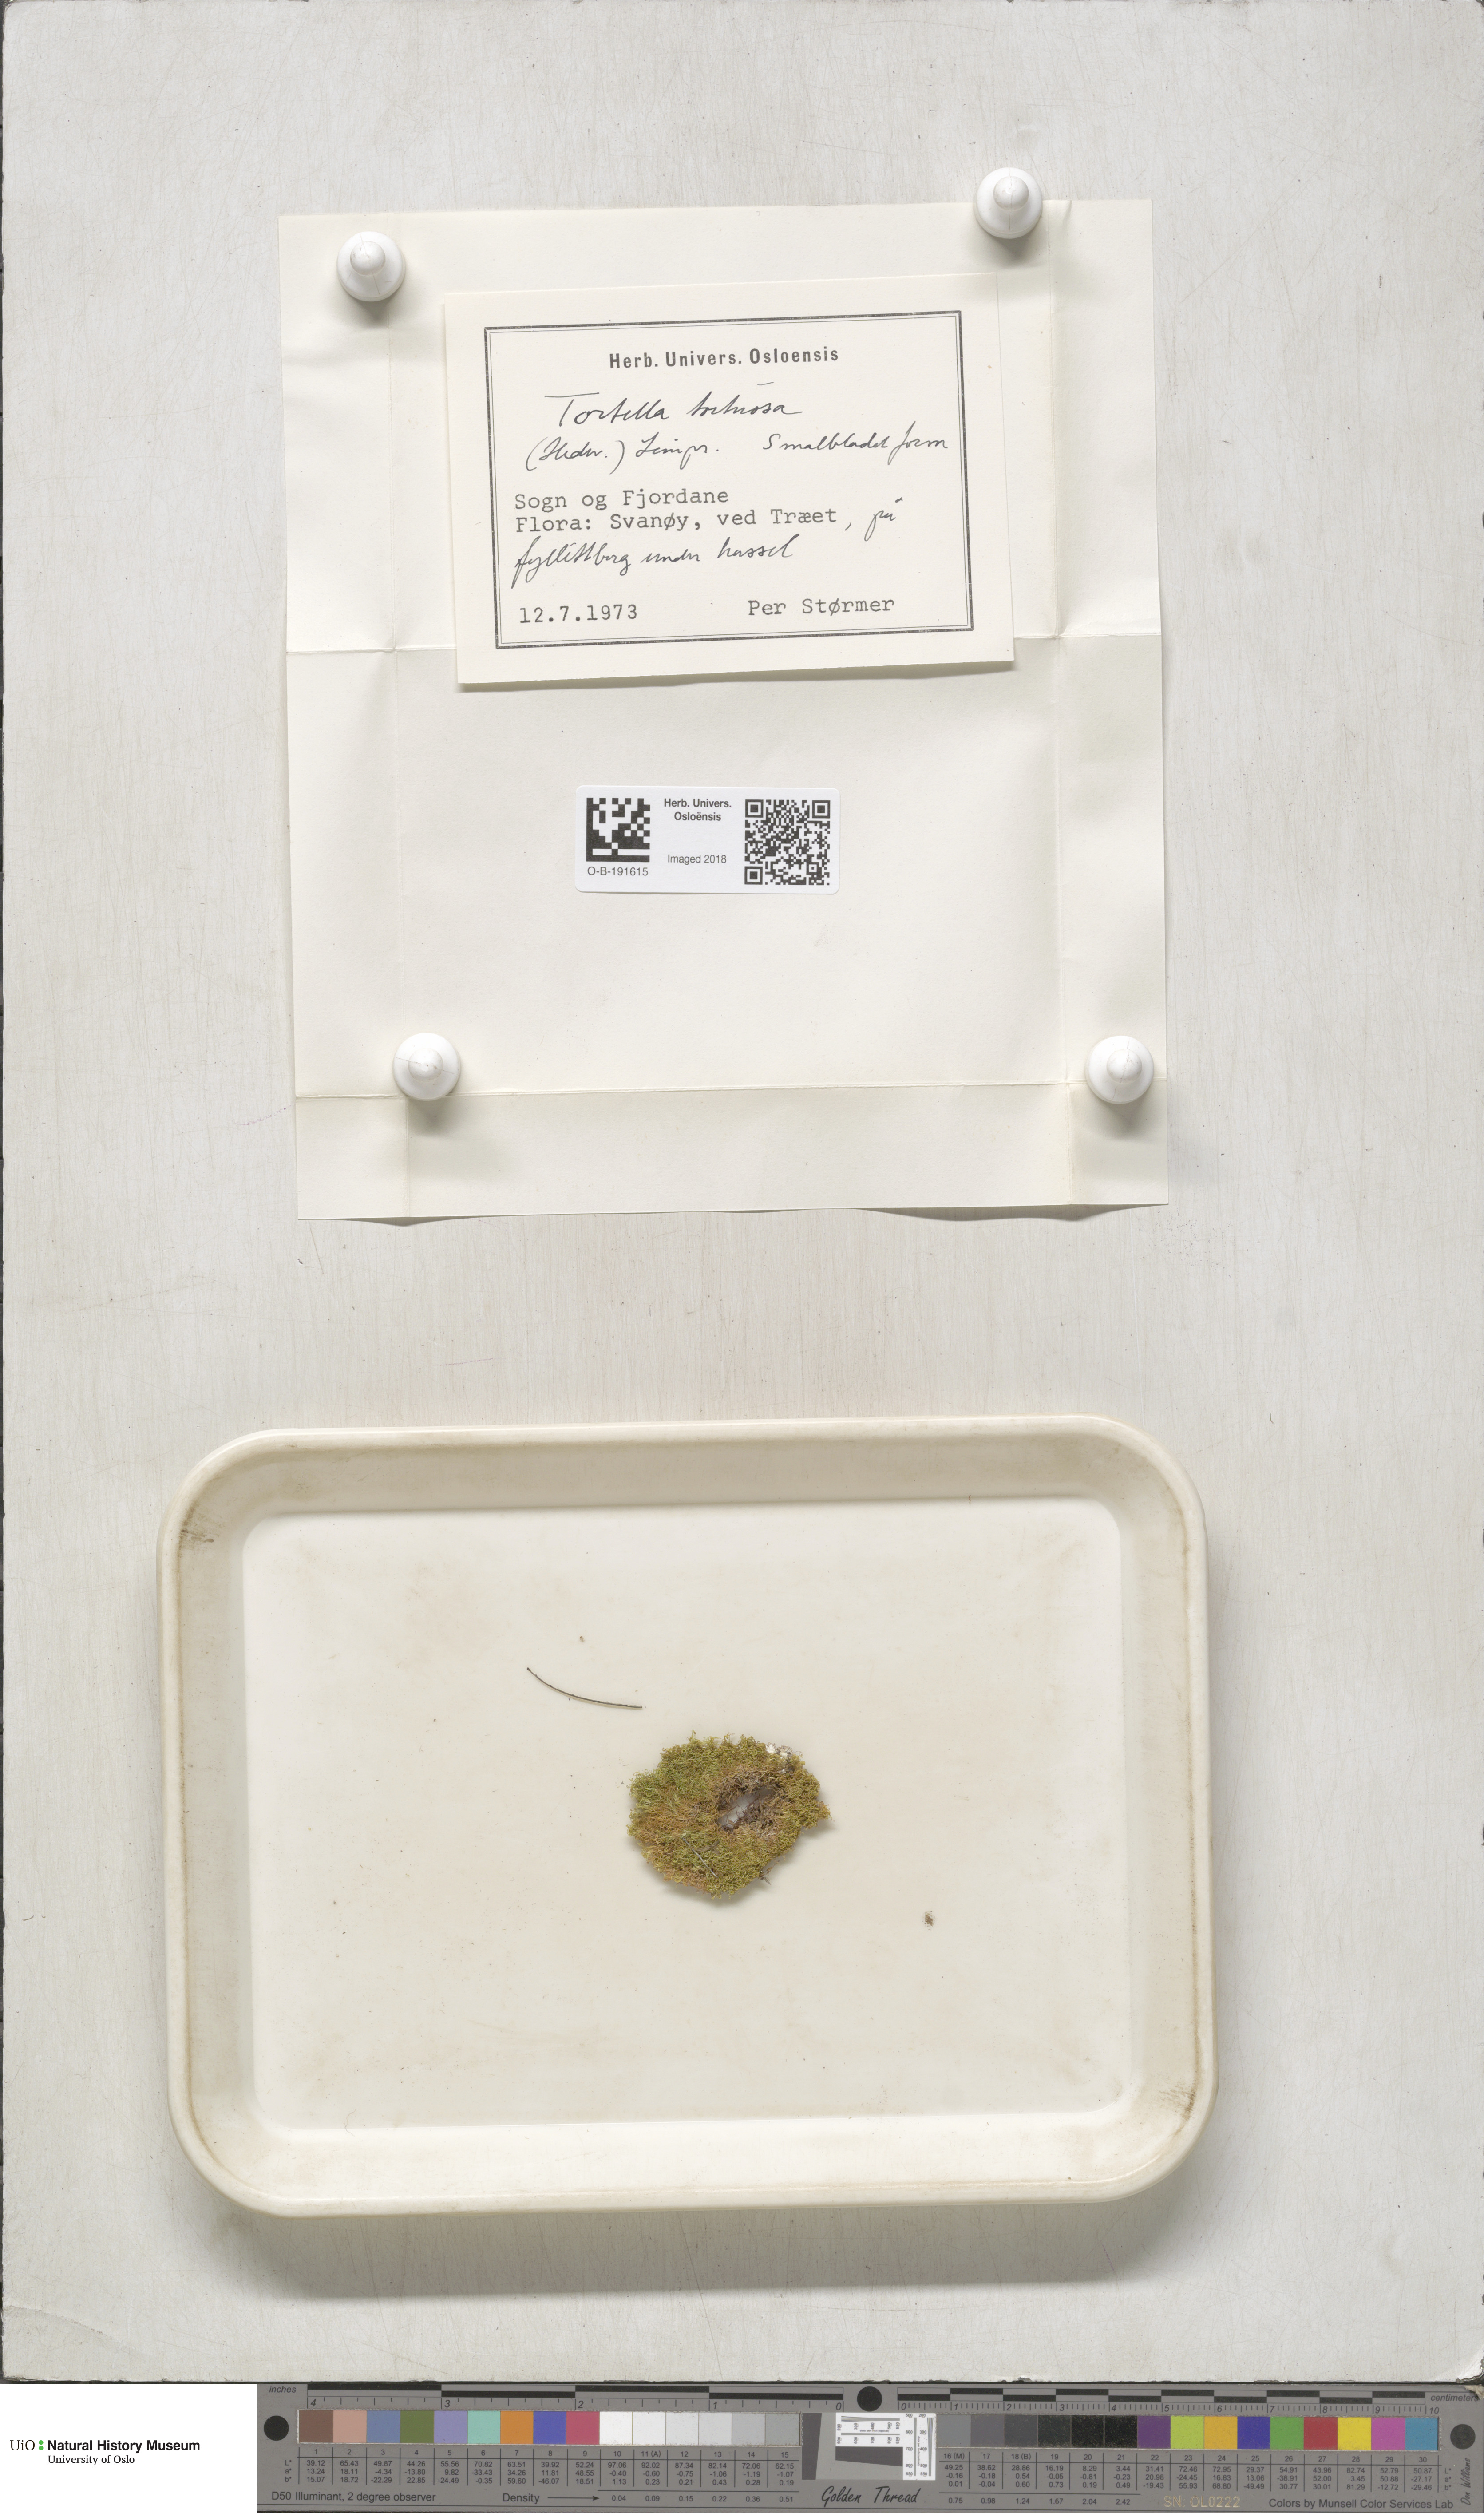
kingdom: Plantae
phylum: Bryophyta
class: Bryopsida
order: Pottiales
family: Pottiaceae
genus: Tortella
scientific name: Tortella tortuosa
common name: Frizzled crisp moss
